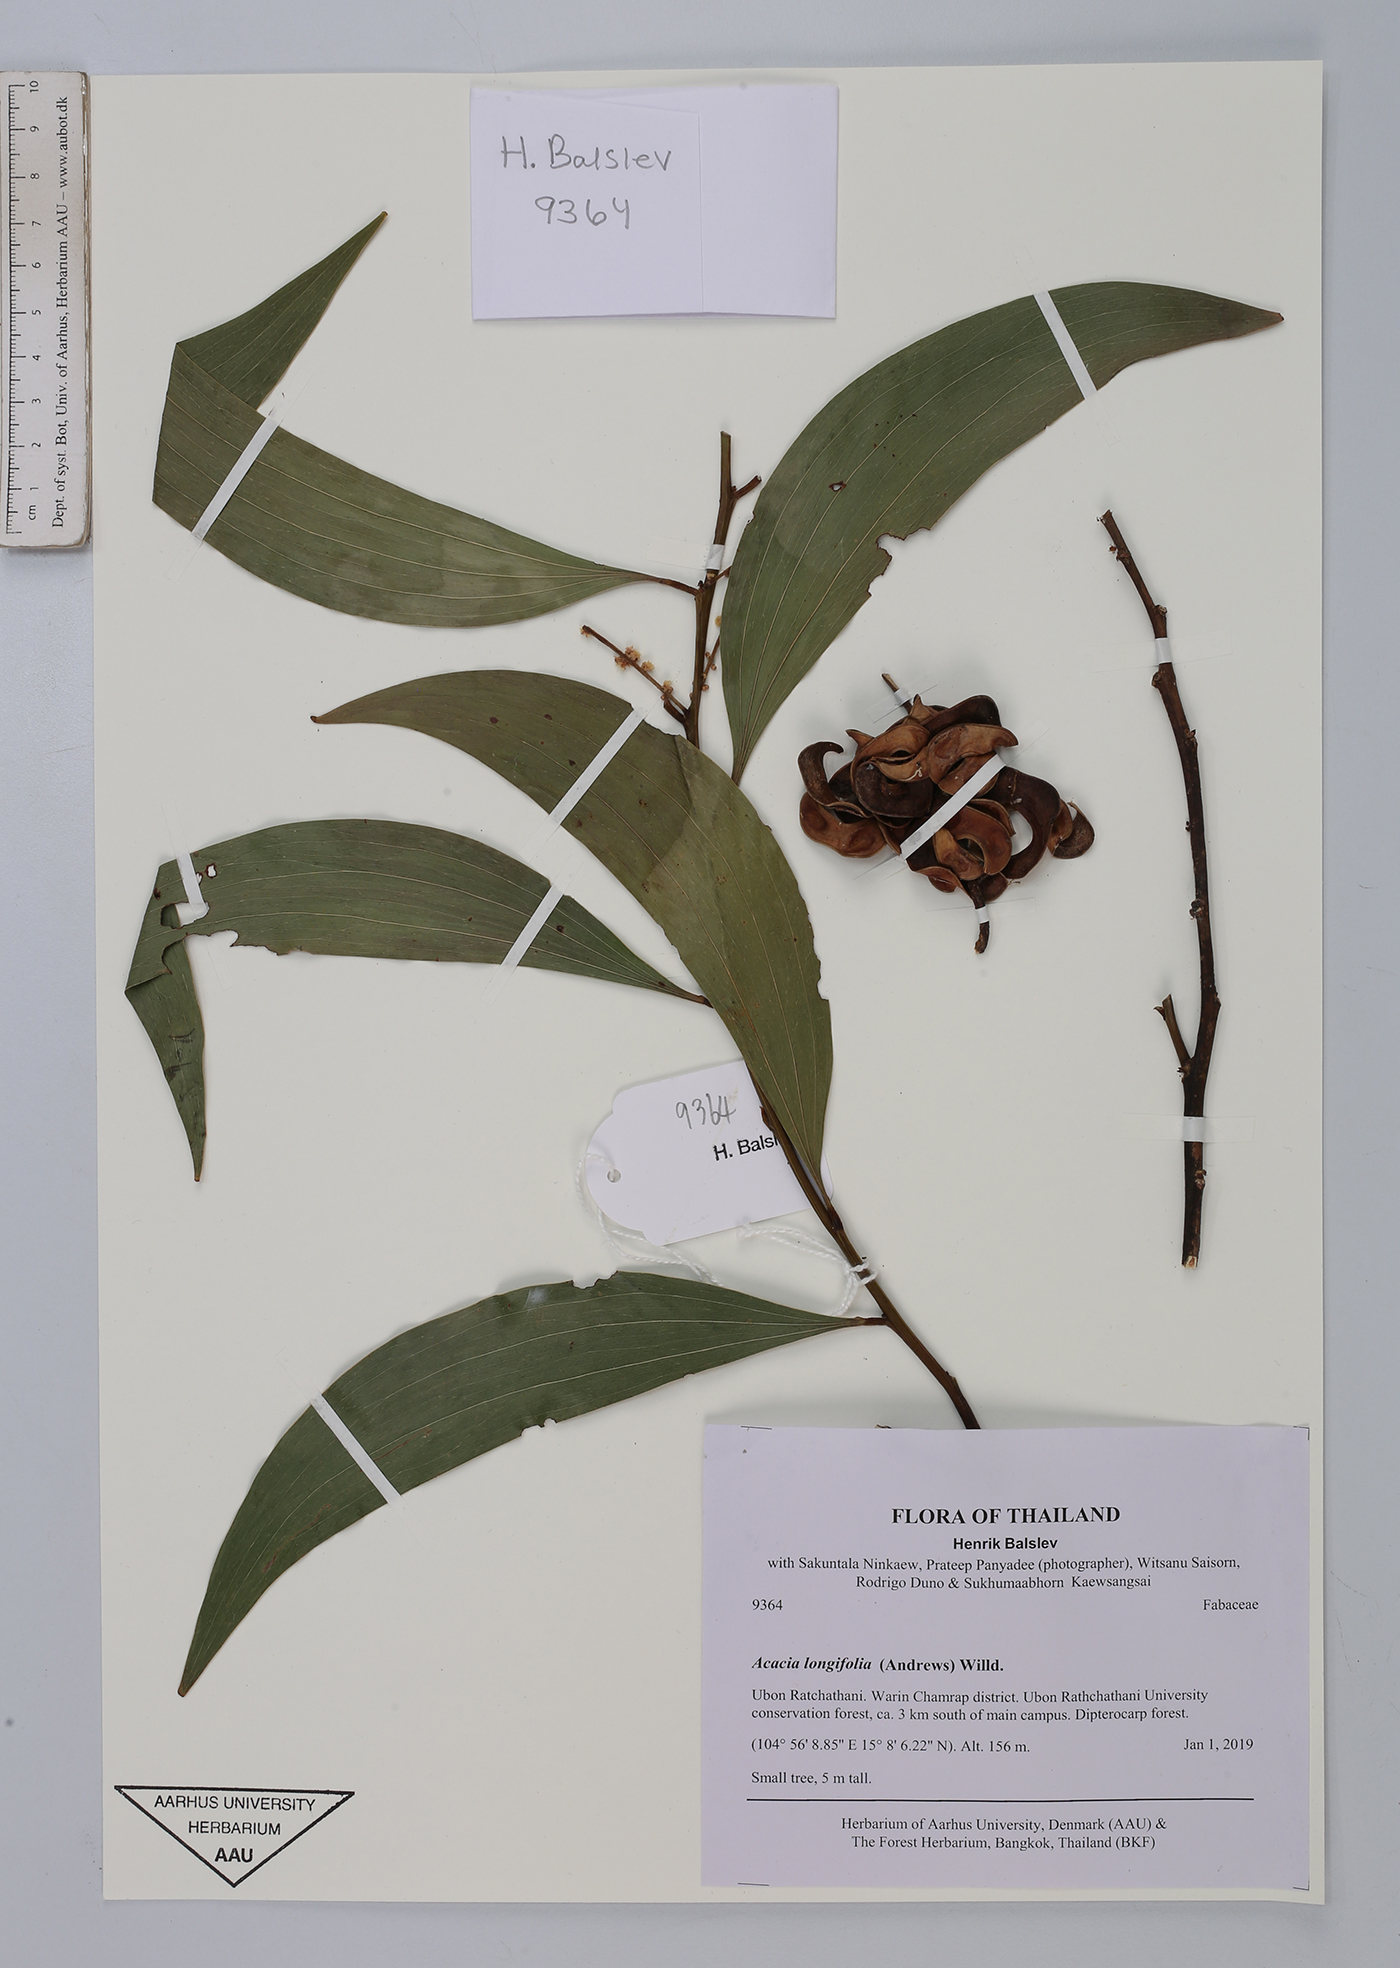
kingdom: Plantae
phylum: Tracheophyta
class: Magnoliopsida
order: Fabales
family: Fabaceae
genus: Acacia
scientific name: Acacia mangium
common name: Black wattle
